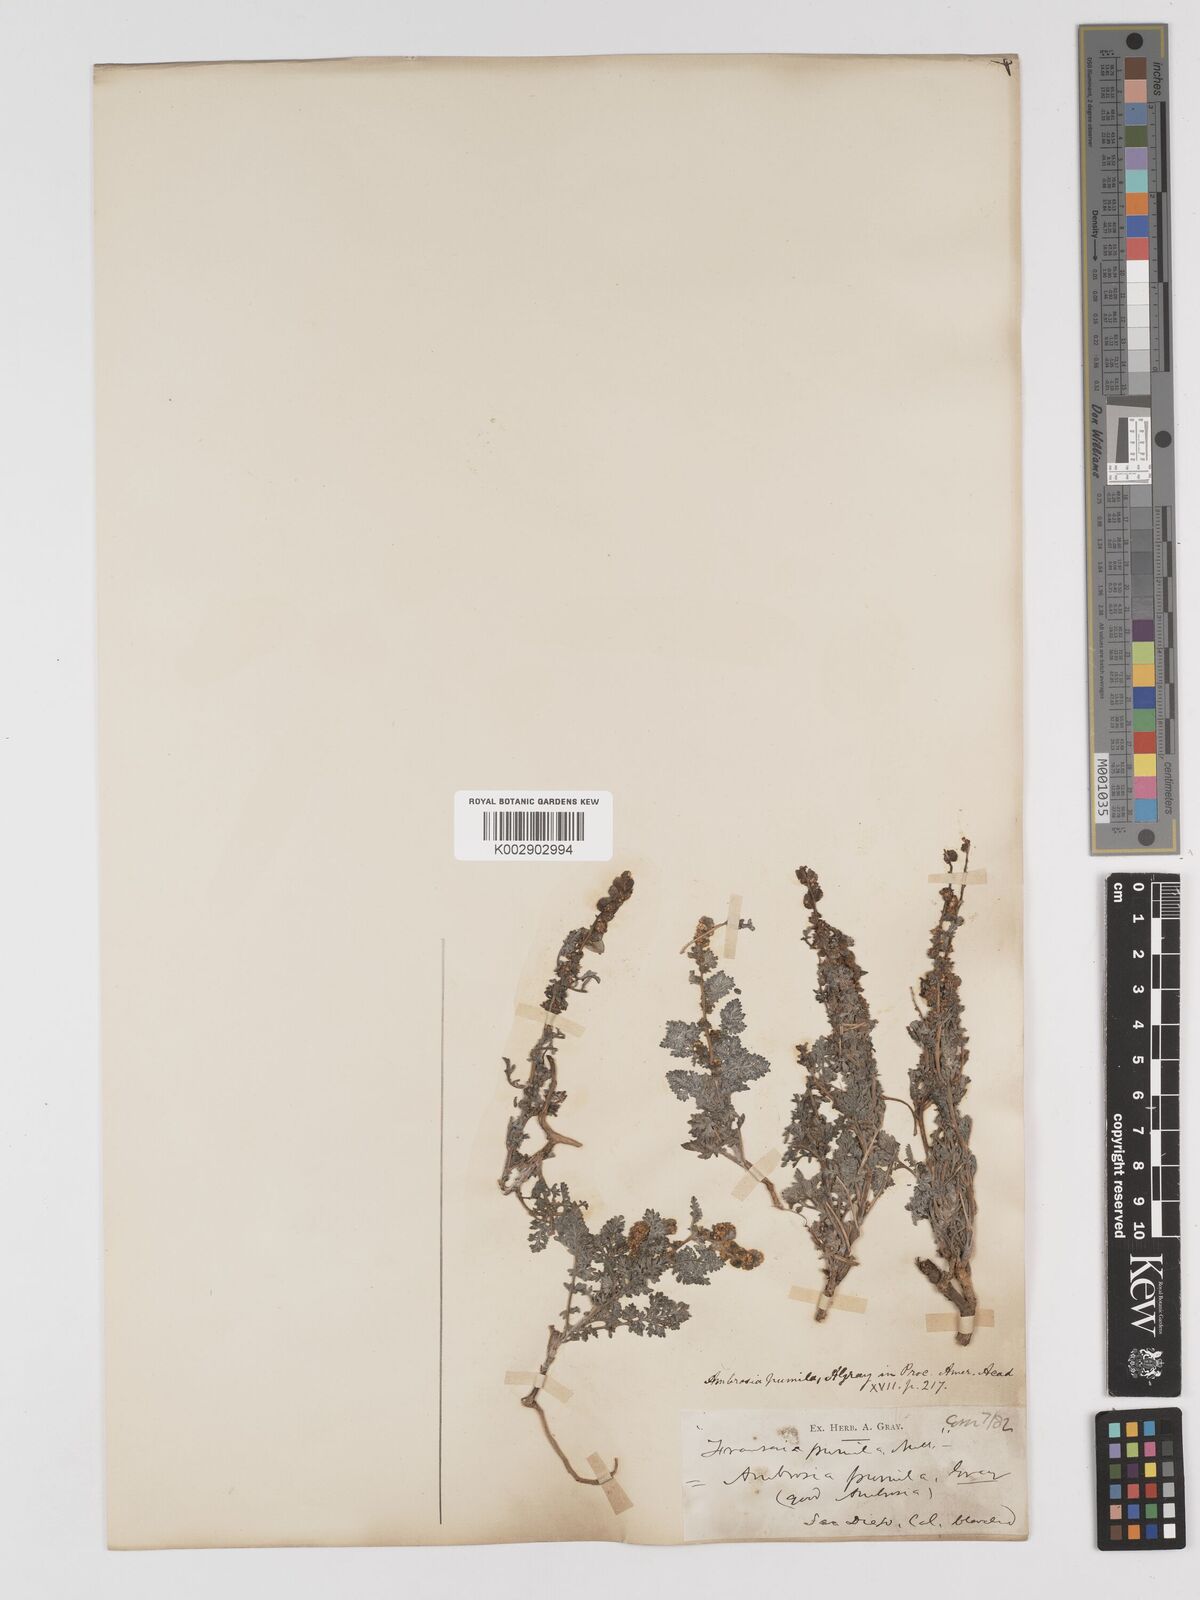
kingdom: Plantae
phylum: Tracheophyta
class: Magnoliopsida
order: Asterales
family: Asteraceae
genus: Ambrosia
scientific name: Ambrosia pumila
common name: San diego ambrosia
